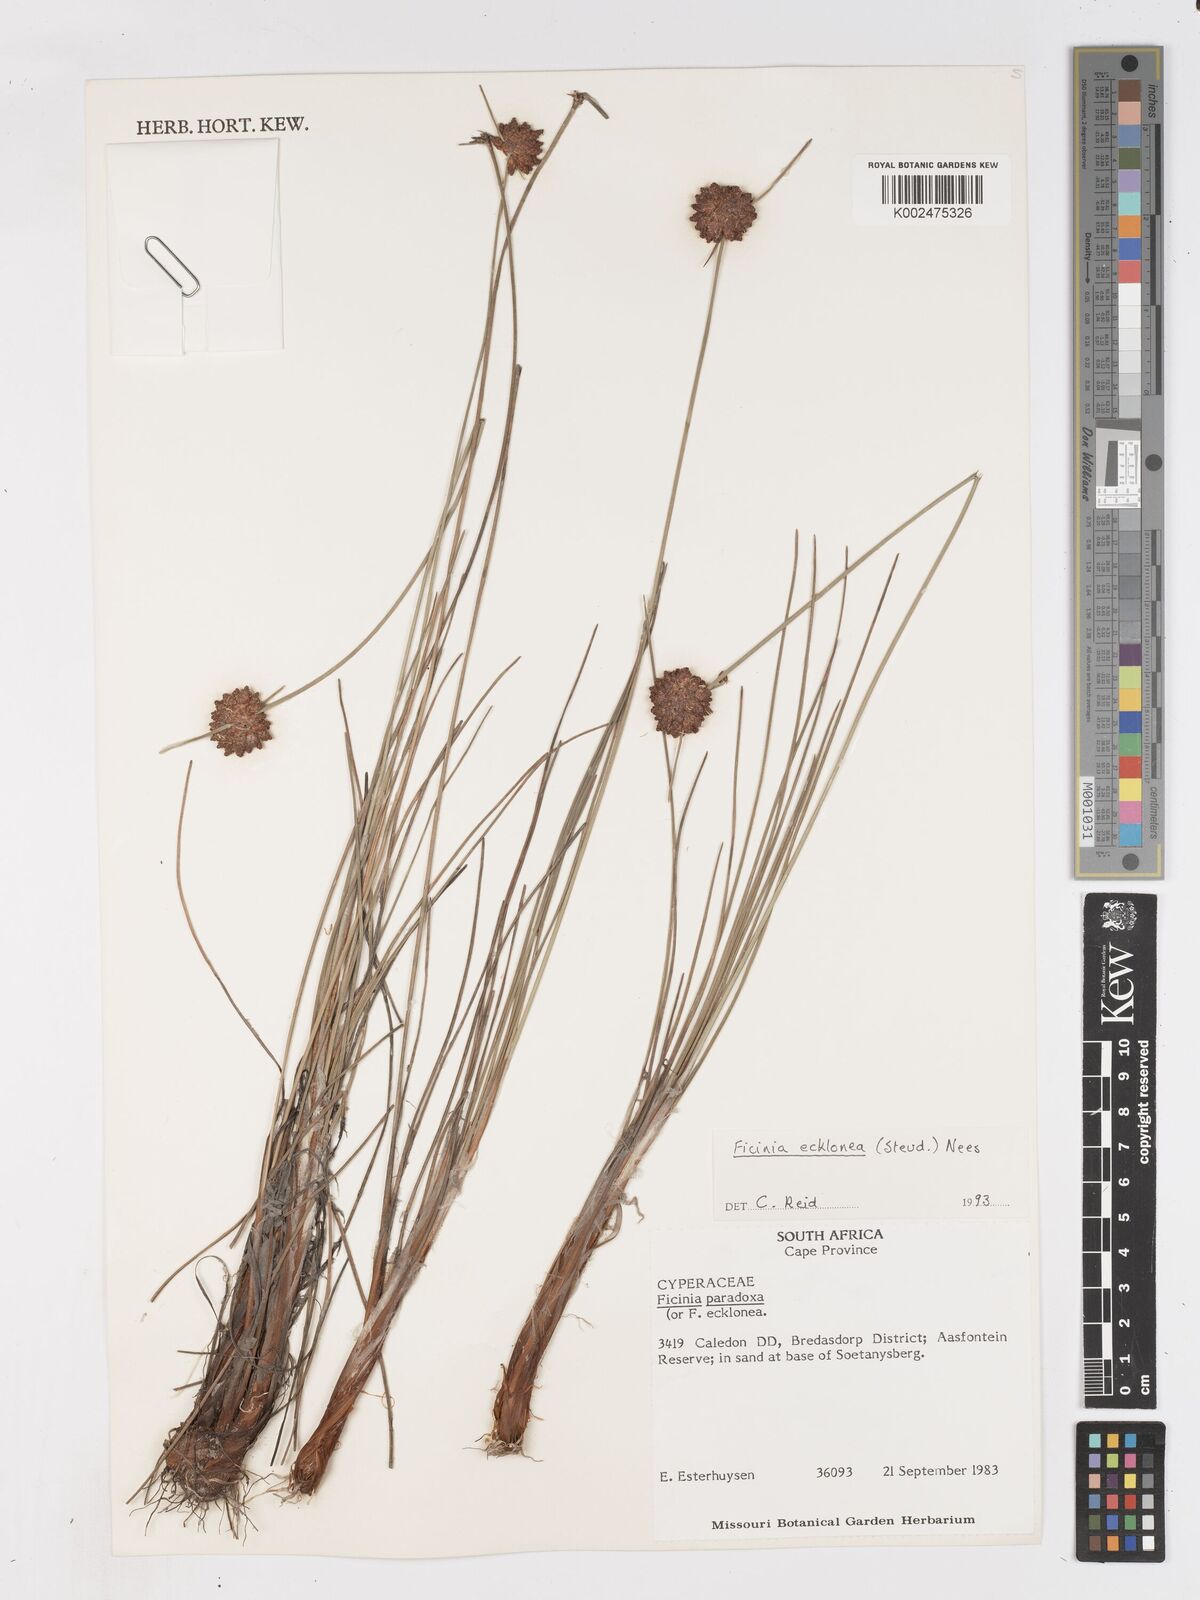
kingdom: Plantae
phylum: Tracheophyta
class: Liliopsida
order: Poales
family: Cyperaceae
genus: Ficinia
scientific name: Ficinia ecklonea
